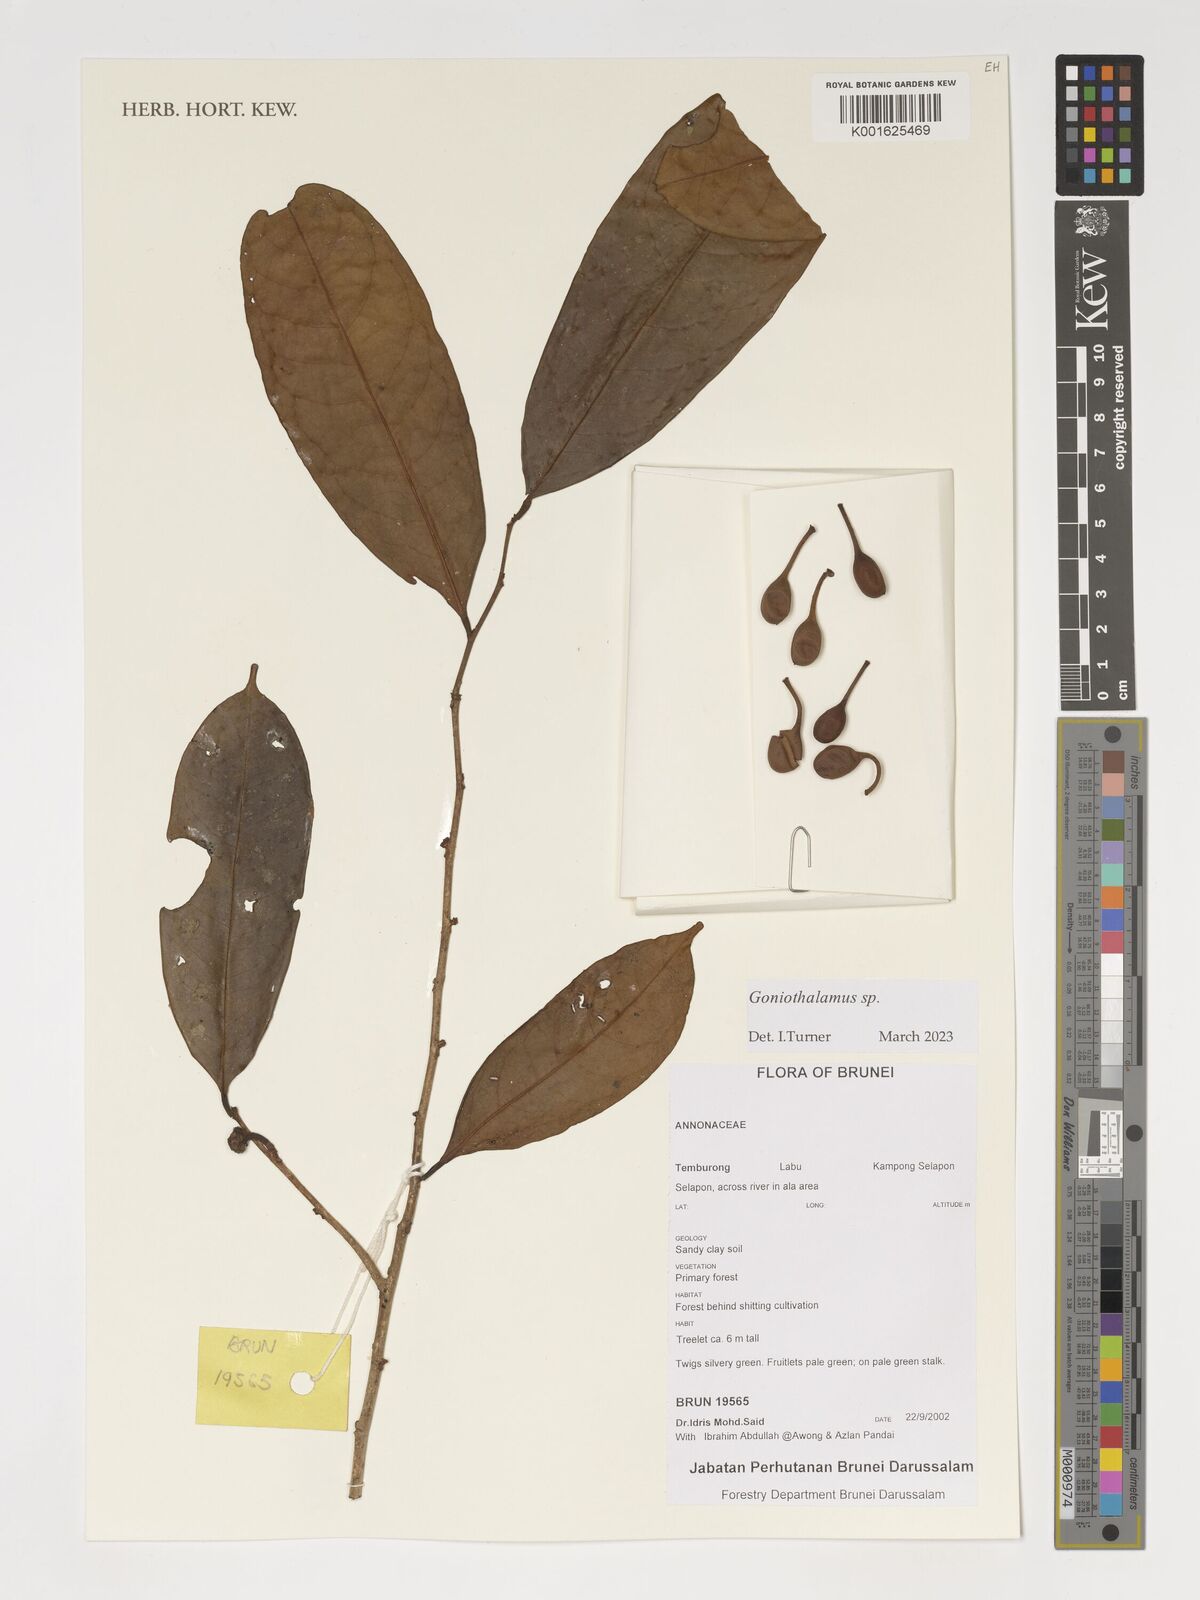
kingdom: Plantae
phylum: Tracheophyta
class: Magnoliopsida
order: Magnoliales
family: Annonaceae
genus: Goniothalamus
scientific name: Goniothalamus
